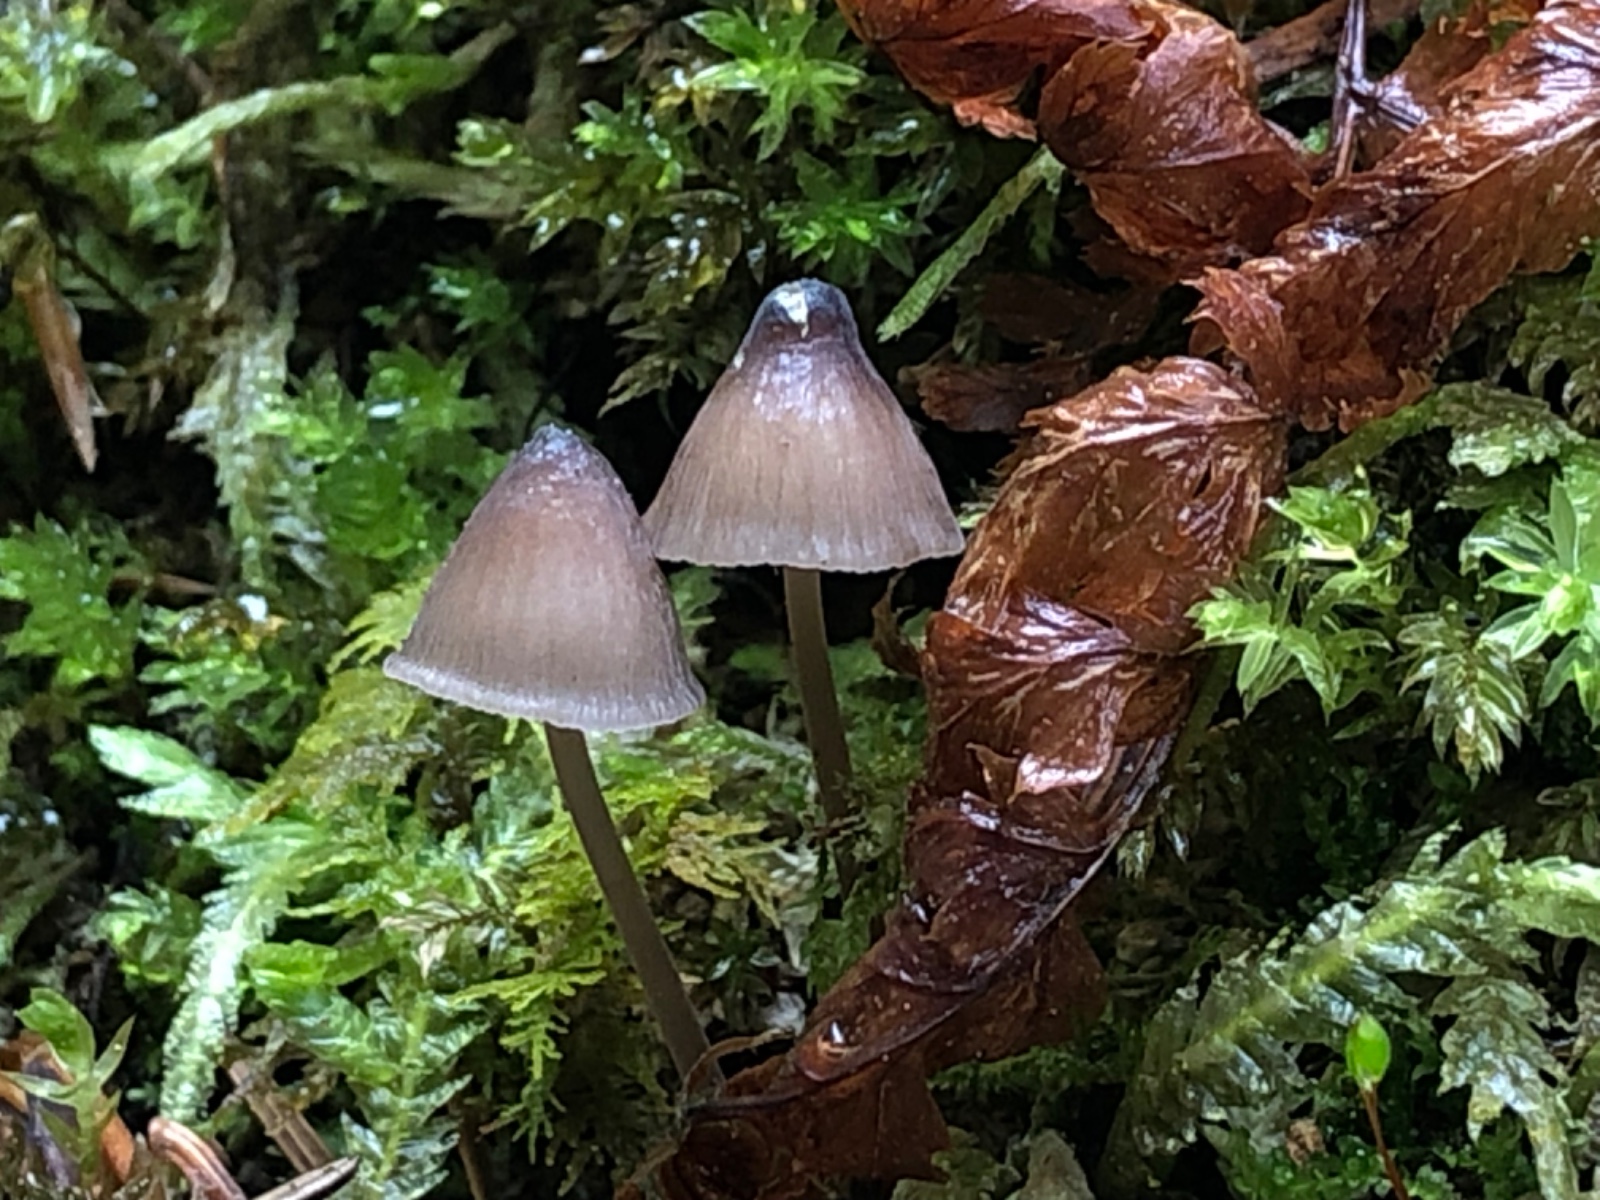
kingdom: Fungi
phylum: Basidiomycota
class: Agaricomycetes
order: Agaricales
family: Mycenaceae
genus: Mycena
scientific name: Mycena silvae-nigrae
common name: tidlig huesvamp
